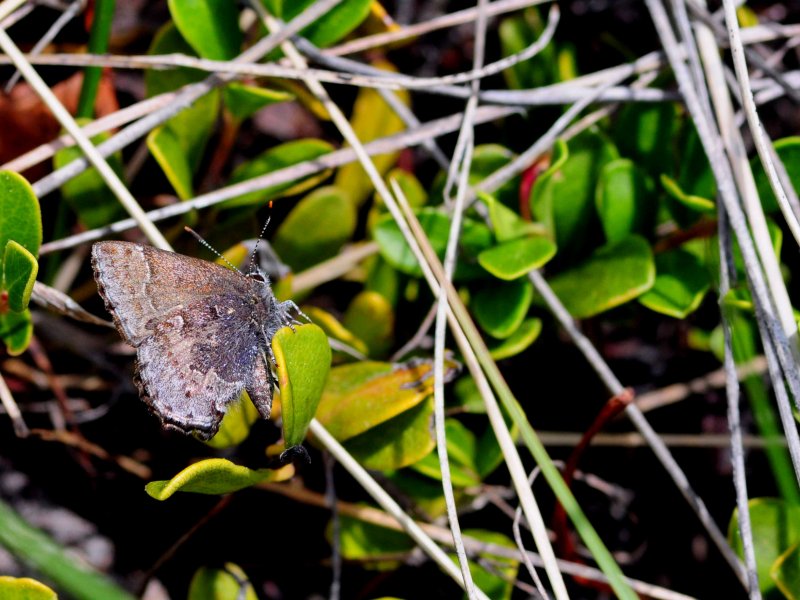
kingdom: Animalia
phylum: Arthropoda
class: Insecta
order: Lepidoptera
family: Lycaenidae
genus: Callophrys
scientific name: Callophrys polios
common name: Hoary Elfin
